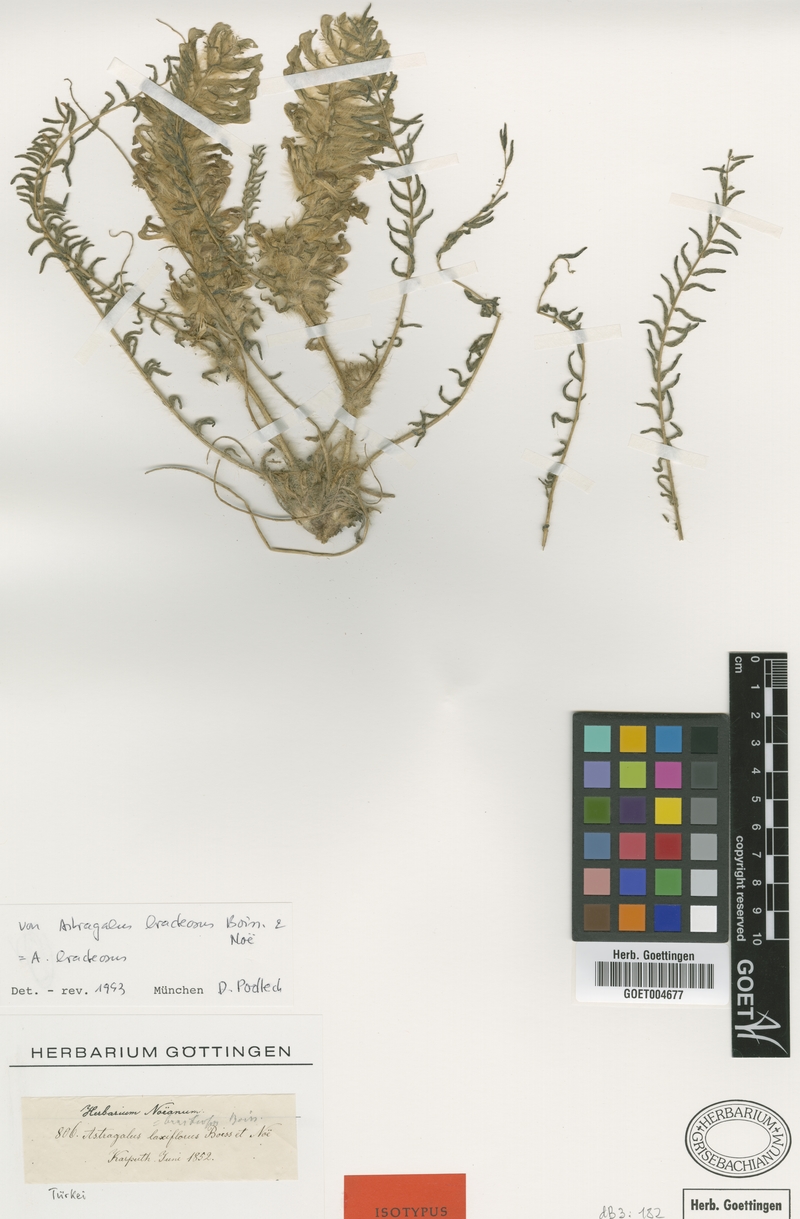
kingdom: Plantae
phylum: Tracheophyta
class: Magnoliopsida
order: Fabales
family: Fabaceae
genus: Astragalus
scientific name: Astragalus bracteosus
